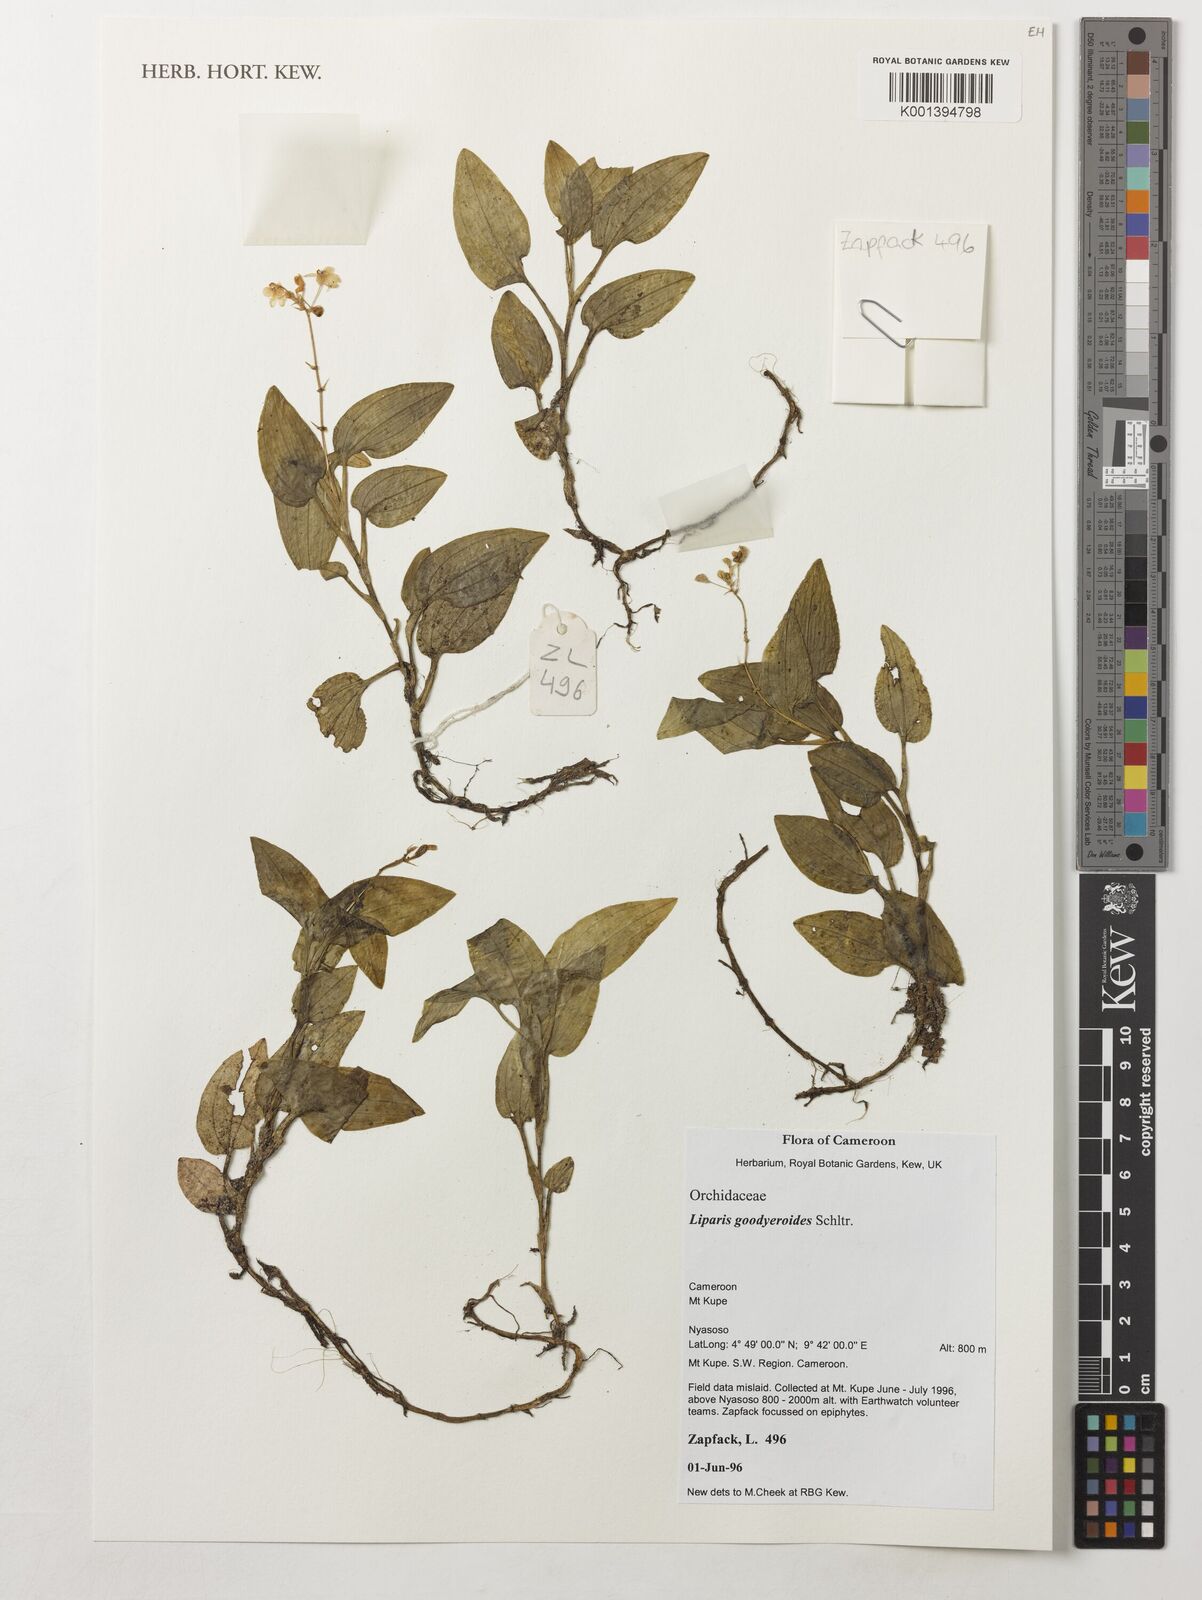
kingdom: Plantae
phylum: Tracheophyta
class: Liliopsida
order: Asparagales
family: Orchidaceae
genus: Liparis
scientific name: Liparis goodyeroides
